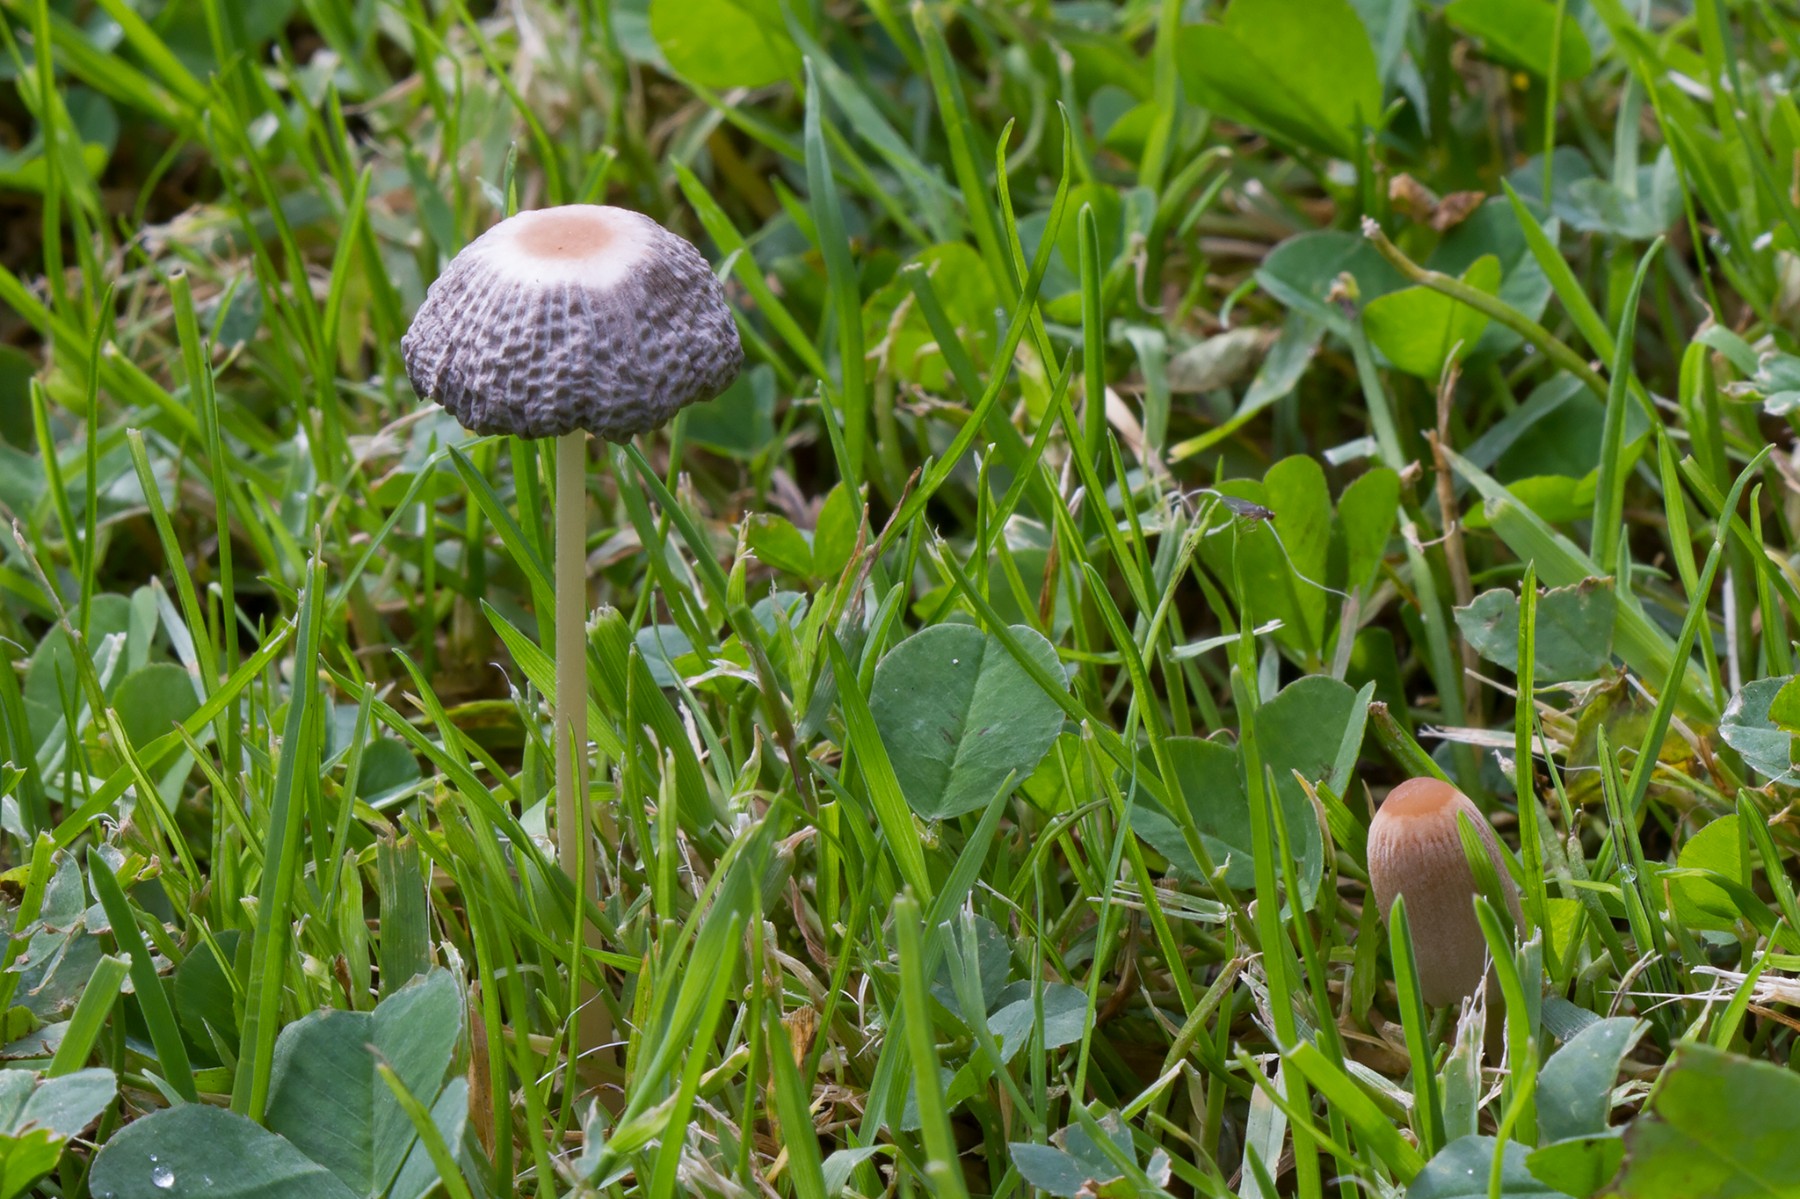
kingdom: Fungi
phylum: Basidiomycota
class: Agaricomycetes
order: Agaricales
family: Psathyrellaceae
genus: Parasola
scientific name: Parasola schroeteri
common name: bredsporet hjulhat
